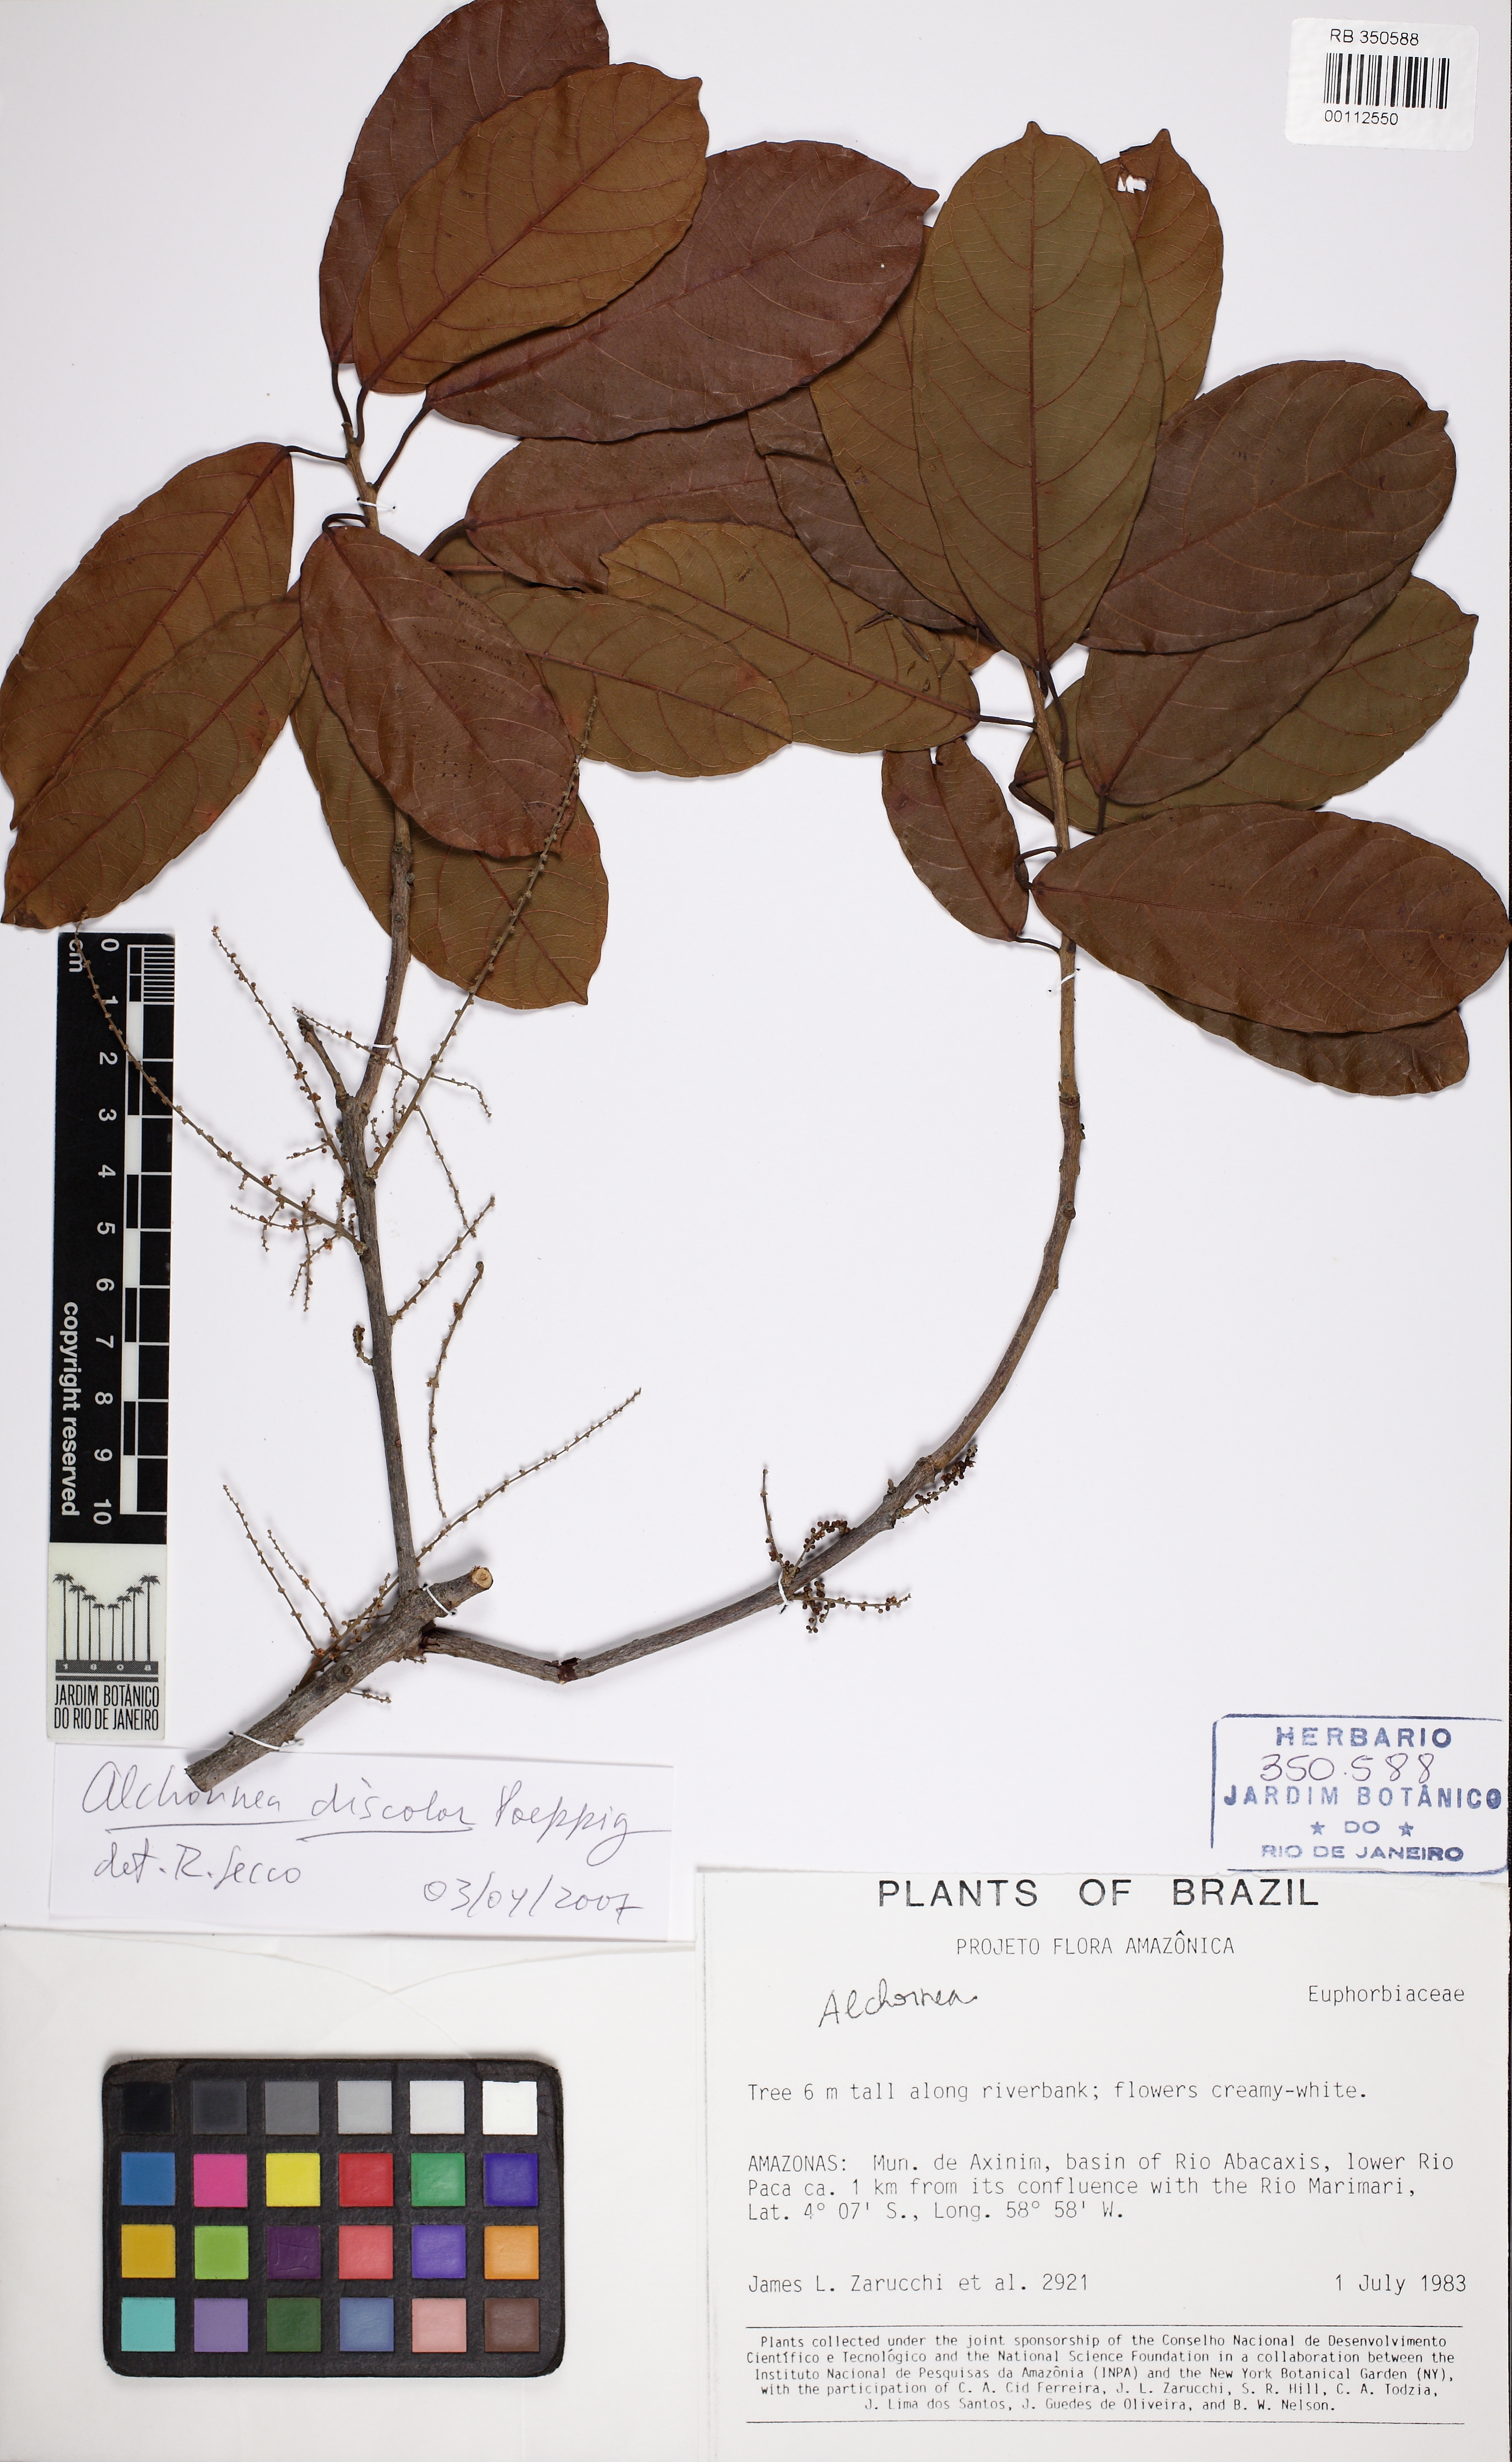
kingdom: Plantae
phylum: Tracheophyta
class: Magnoliopsida
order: Malpighiales
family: Euphorbiaceae
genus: Alchornea
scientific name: Alchornea glandulosa
